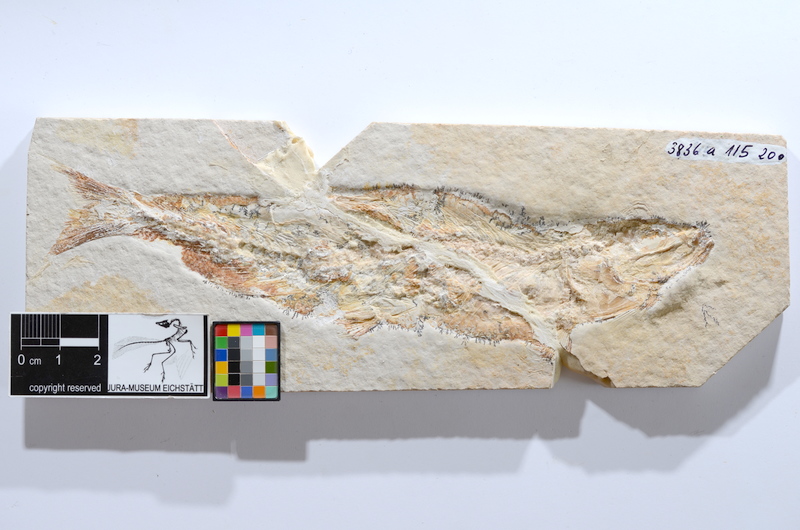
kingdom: Animalia
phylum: Chordata
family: Ascalaboidae
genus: Tharsis
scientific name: Tharsis dubius
